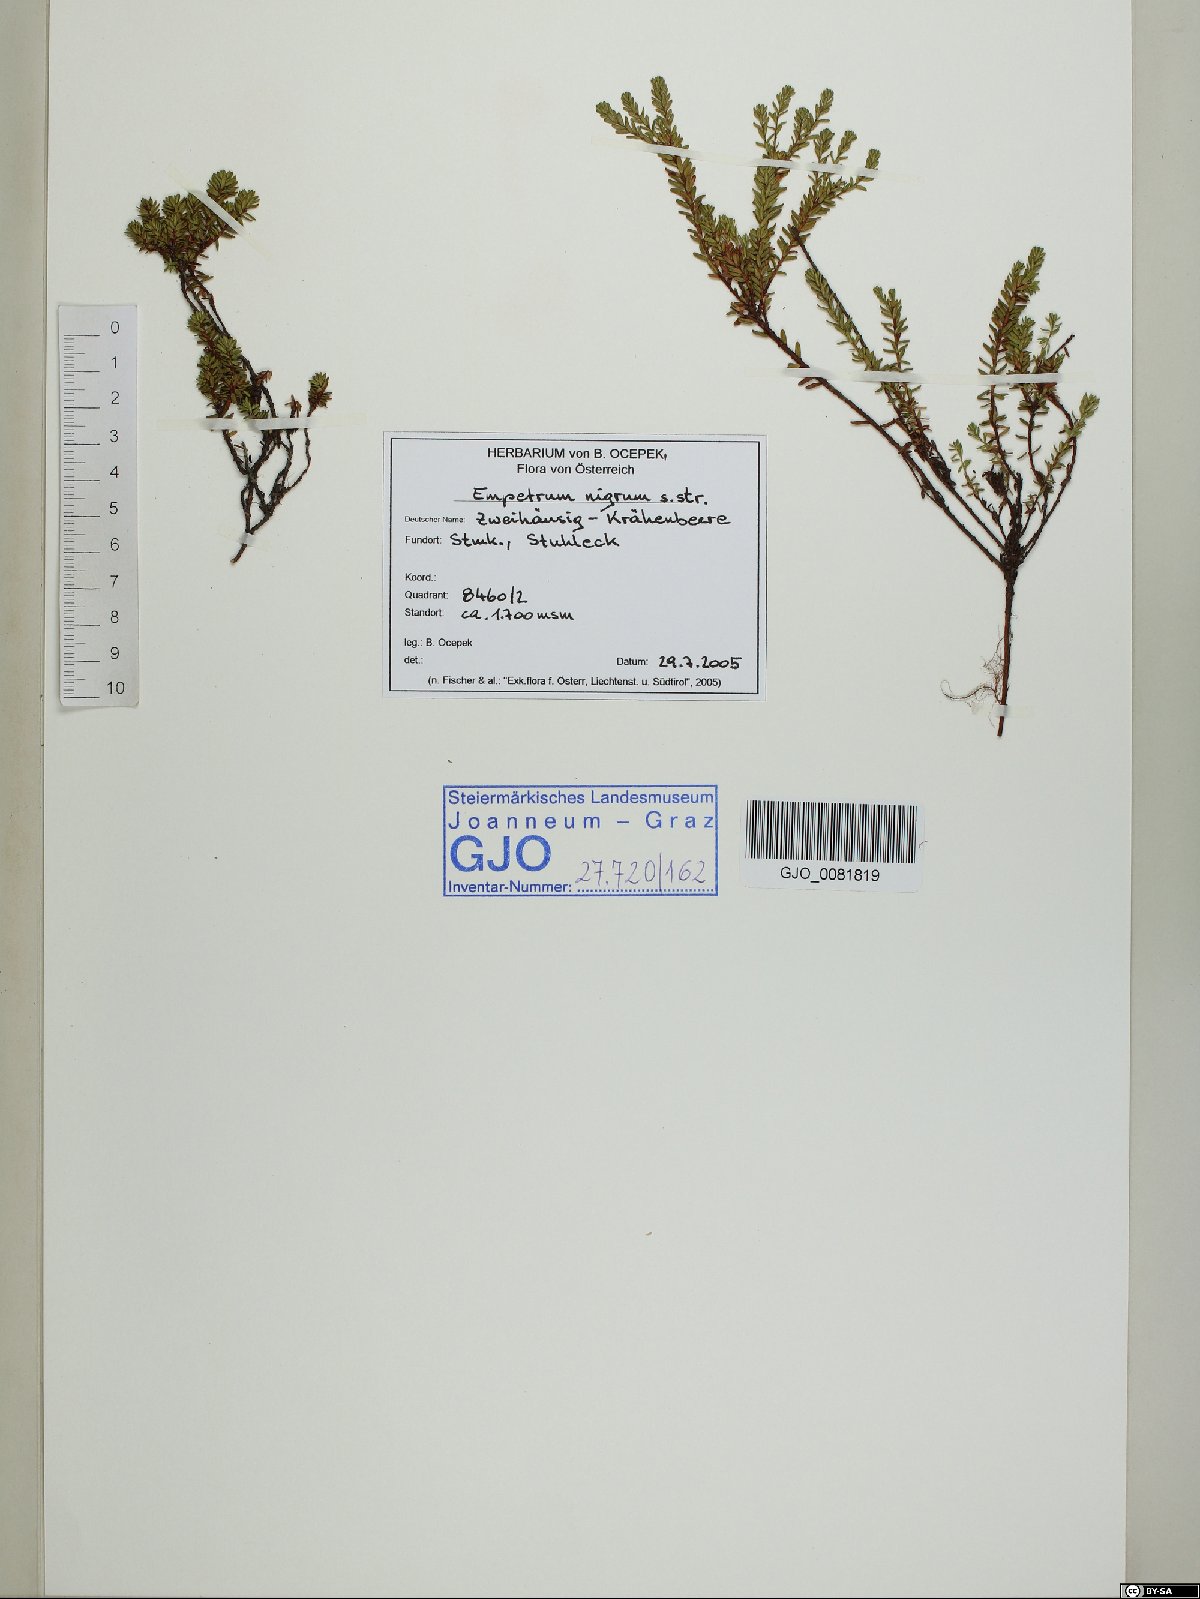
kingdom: Plantae
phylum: Tracheophyta
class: Magnoliopsida
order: Ericales
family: Ericaceae
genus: Empetrum
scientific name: Empetrum nigrum
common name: Black crowberry
